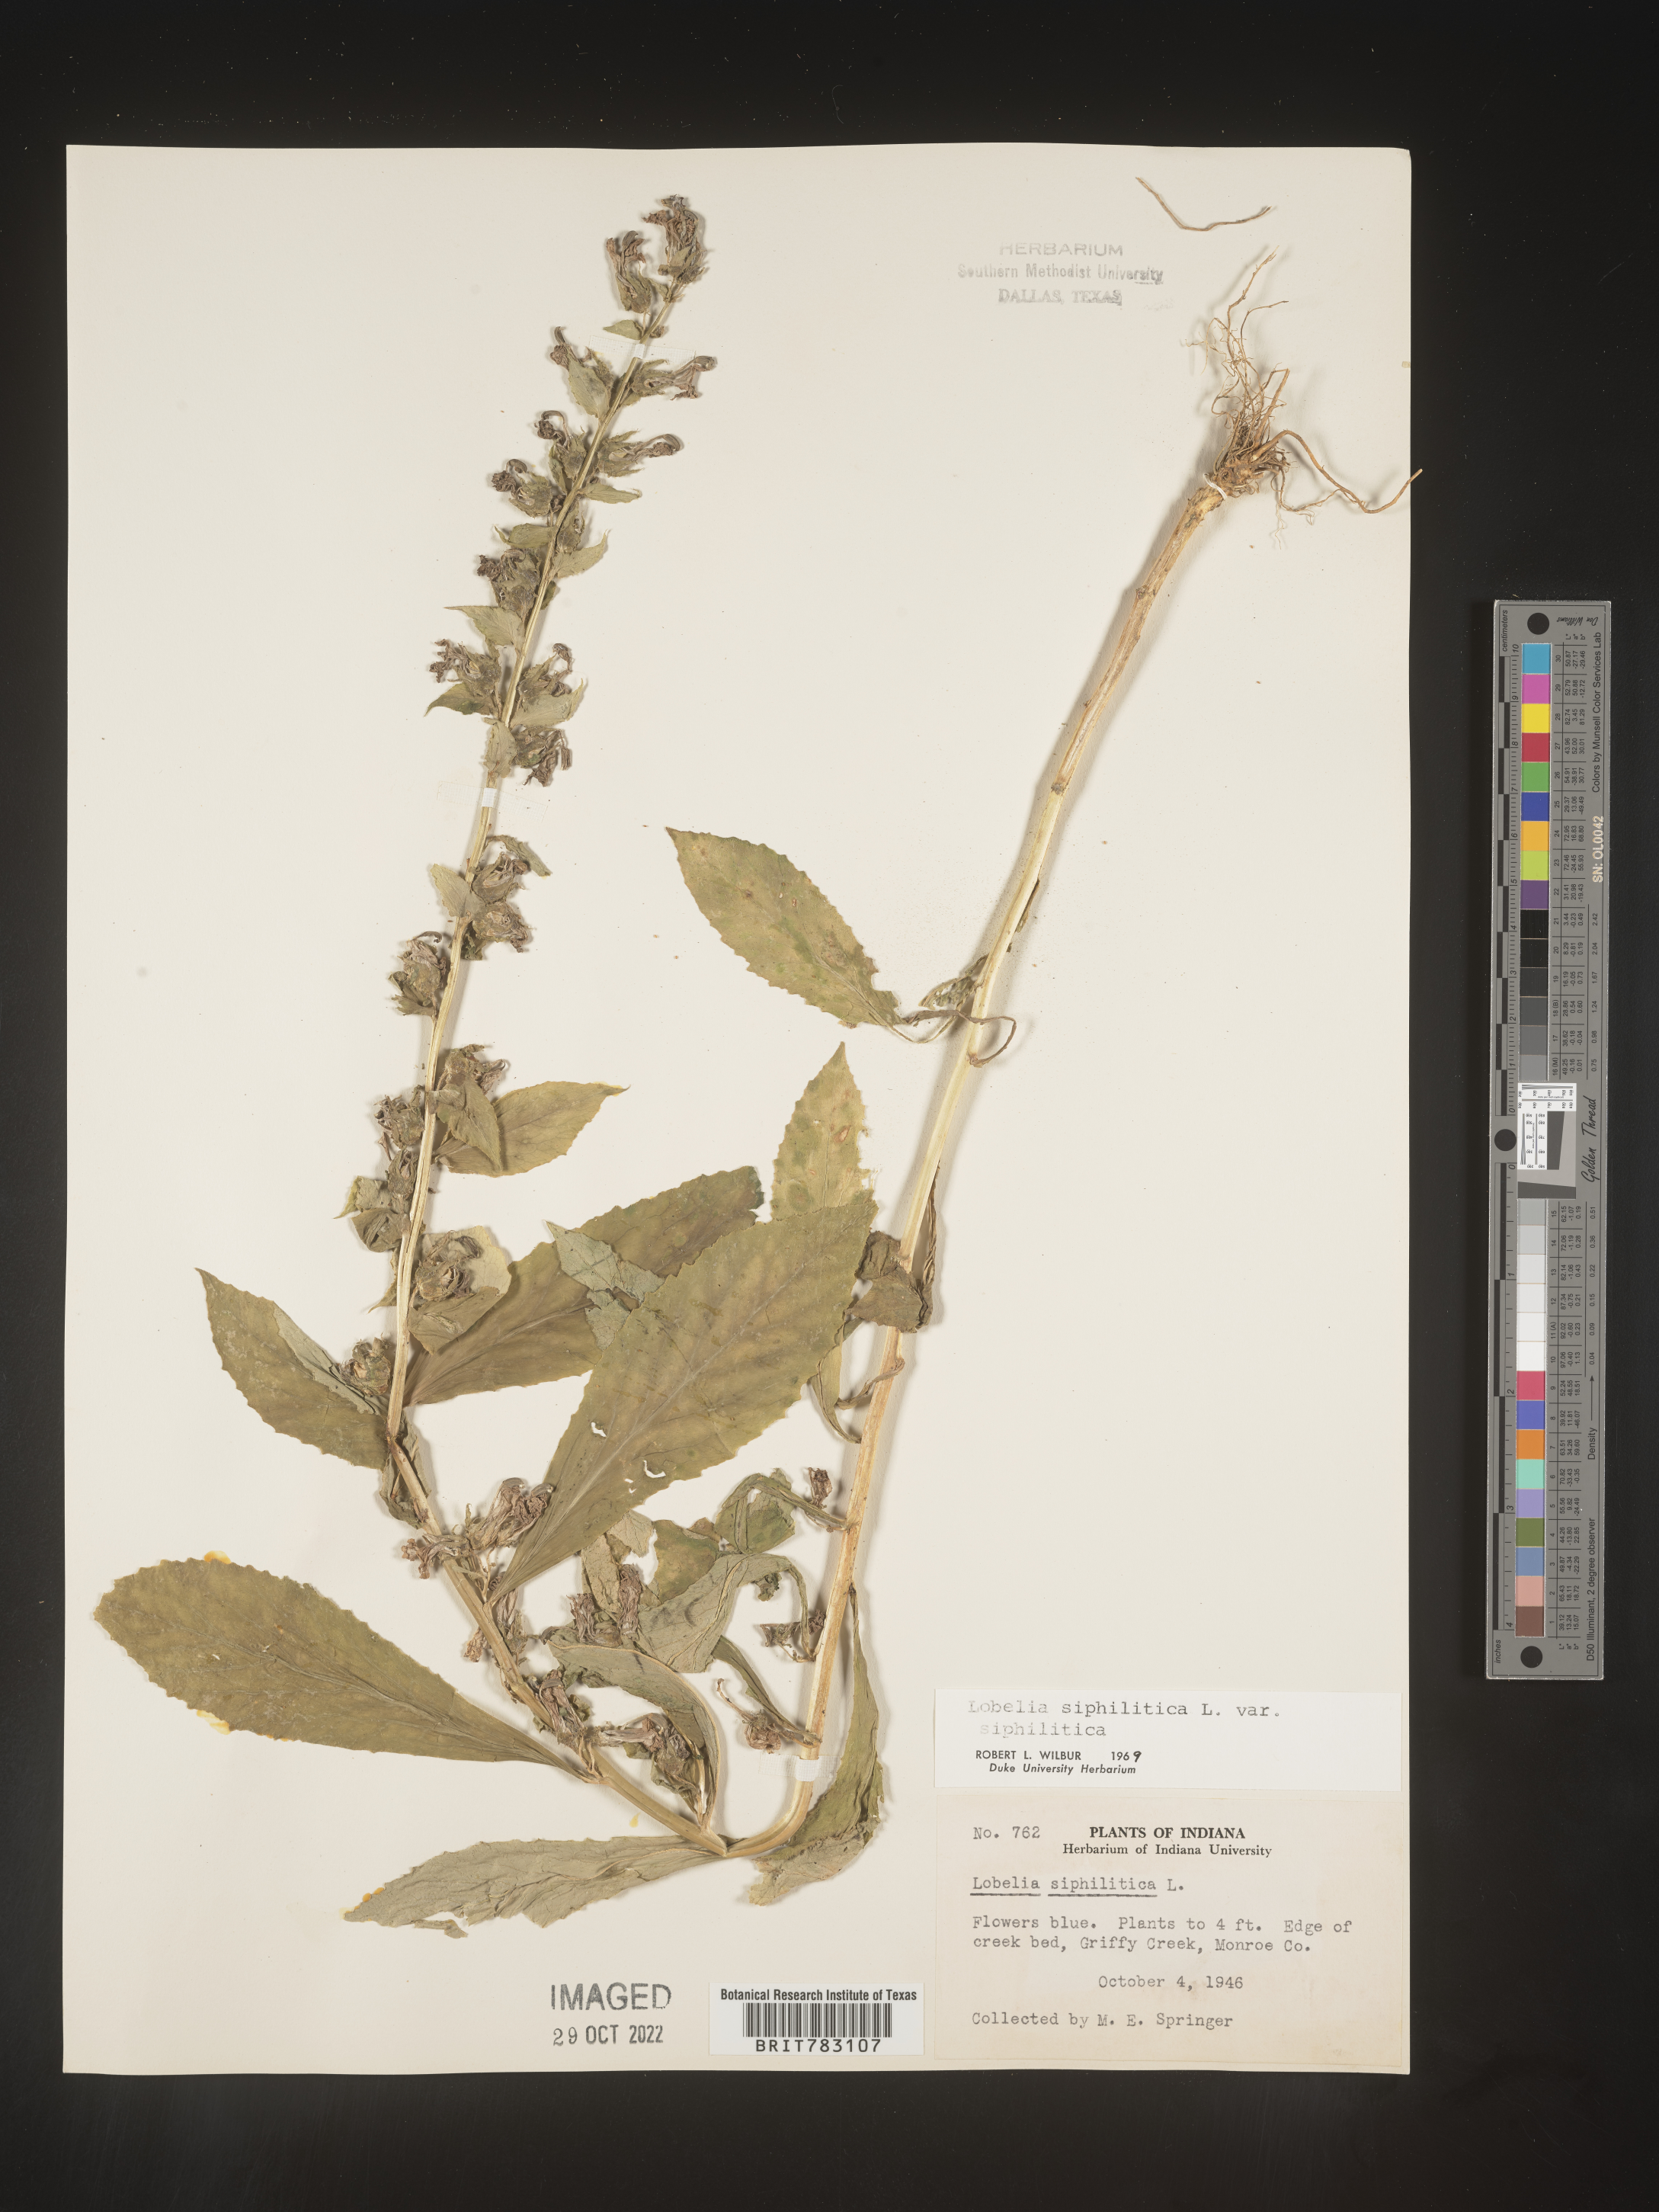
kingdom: Plantae
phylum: Tracheophyta
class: Magnoliopsida
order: Asterales
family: Campanulaceae
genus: Lobelia
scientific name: Lobelia siphilitica
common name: Great lobelia
